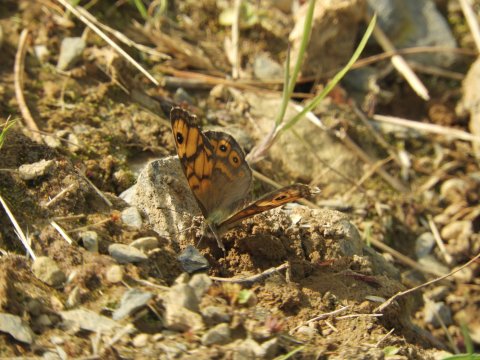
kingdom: Animalia
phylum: Arthropoda
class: Insecta
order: Lepidoptera
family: Nymphalidae
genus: Pararge
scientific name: Pararge Lasiommata megera
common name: Wall
